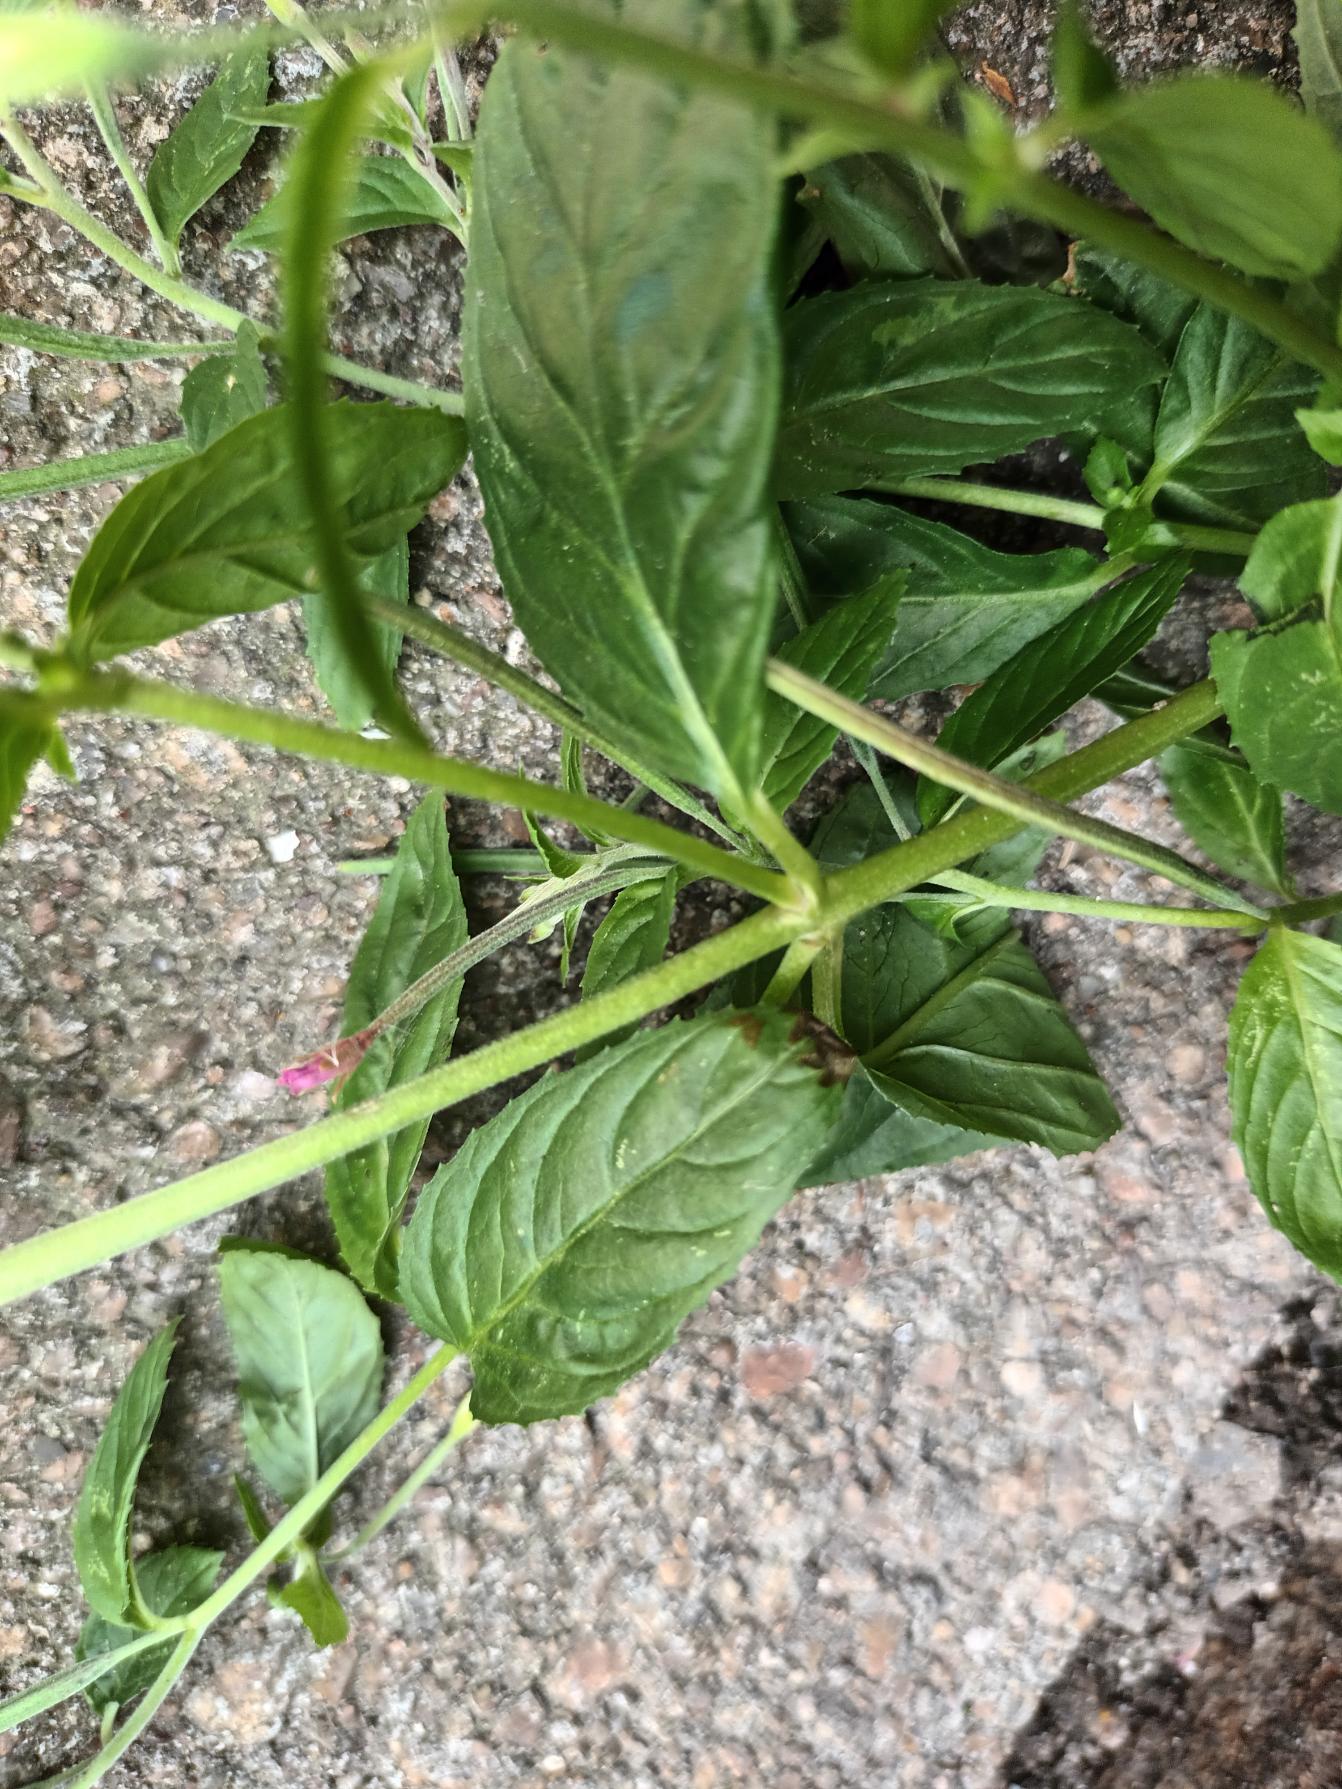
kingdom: Plantae
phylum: Tracheophyta
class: Magnoliopsida
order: Myrtales
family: Onagraceae
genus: Epilobium
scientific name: Epilobium roseum
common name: Rosen-dueurt
